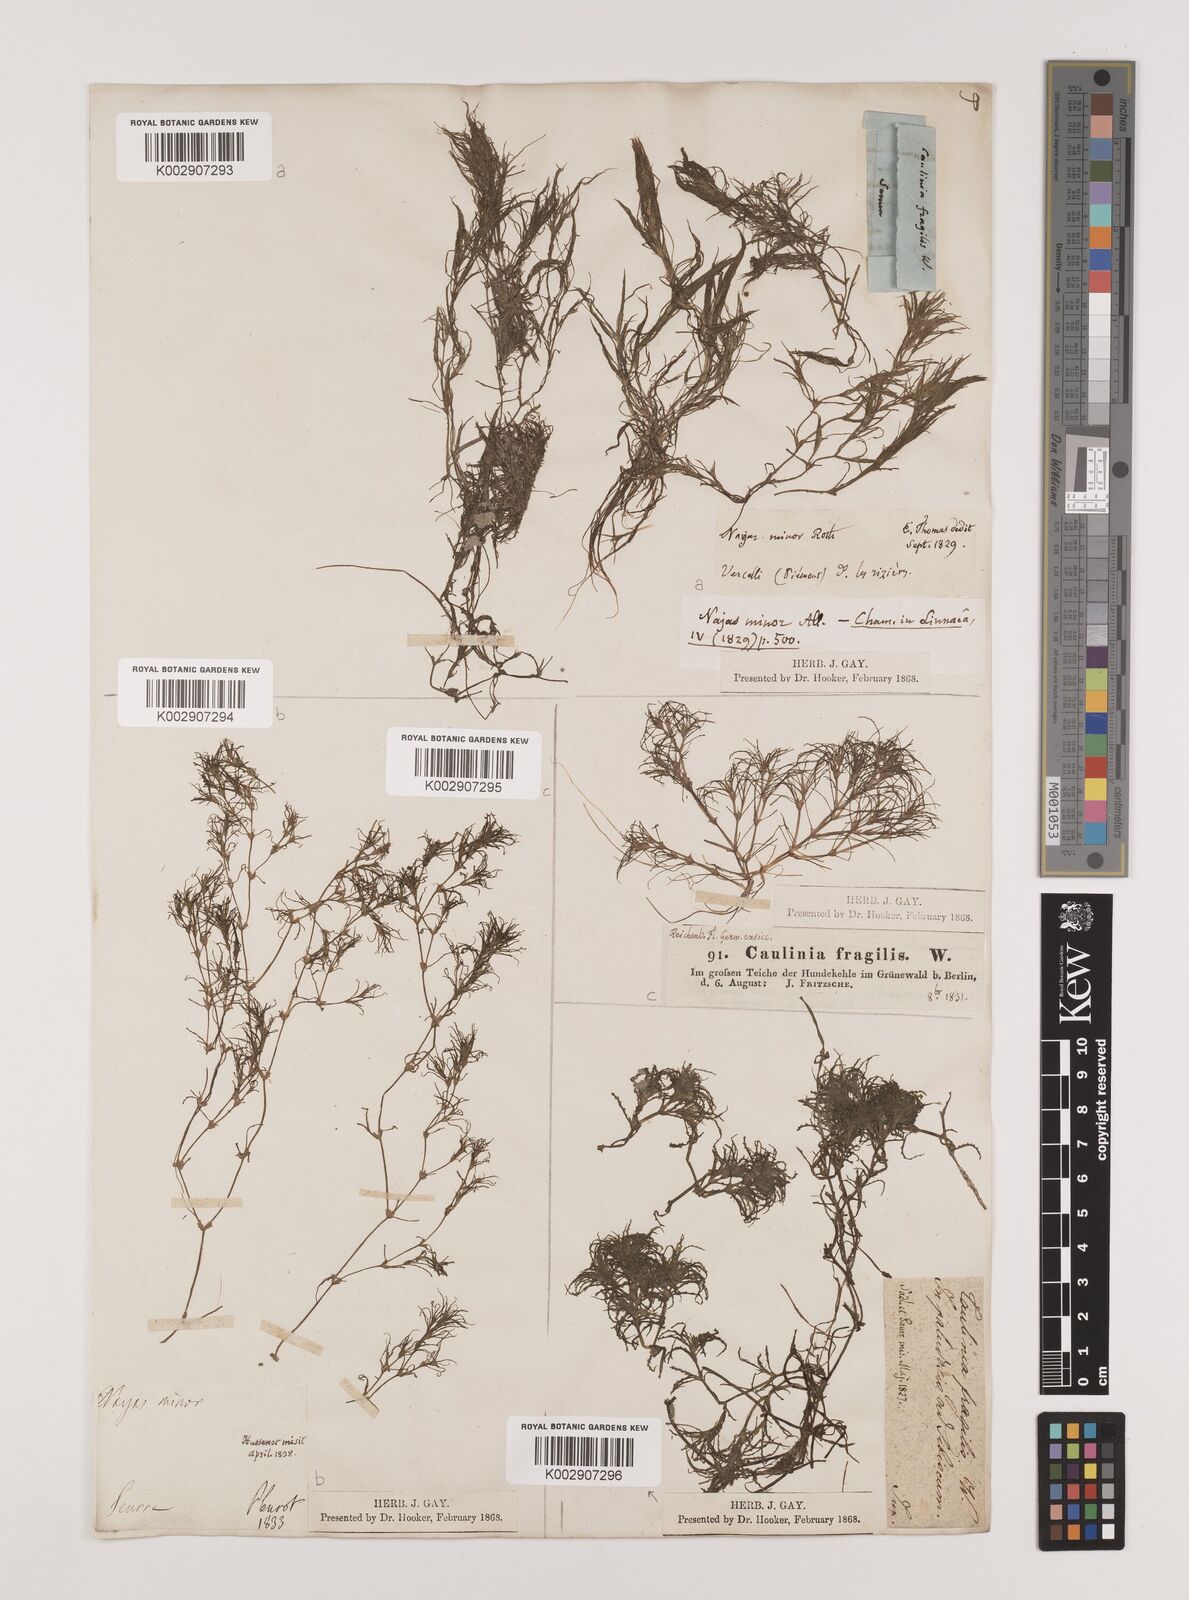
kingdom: Plantae
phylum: Tracheophyta
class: Liliopsida
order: Alismatales
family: Hydrocharitaceae
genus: Najas
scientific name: Najas minor
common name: Brittle naiad
